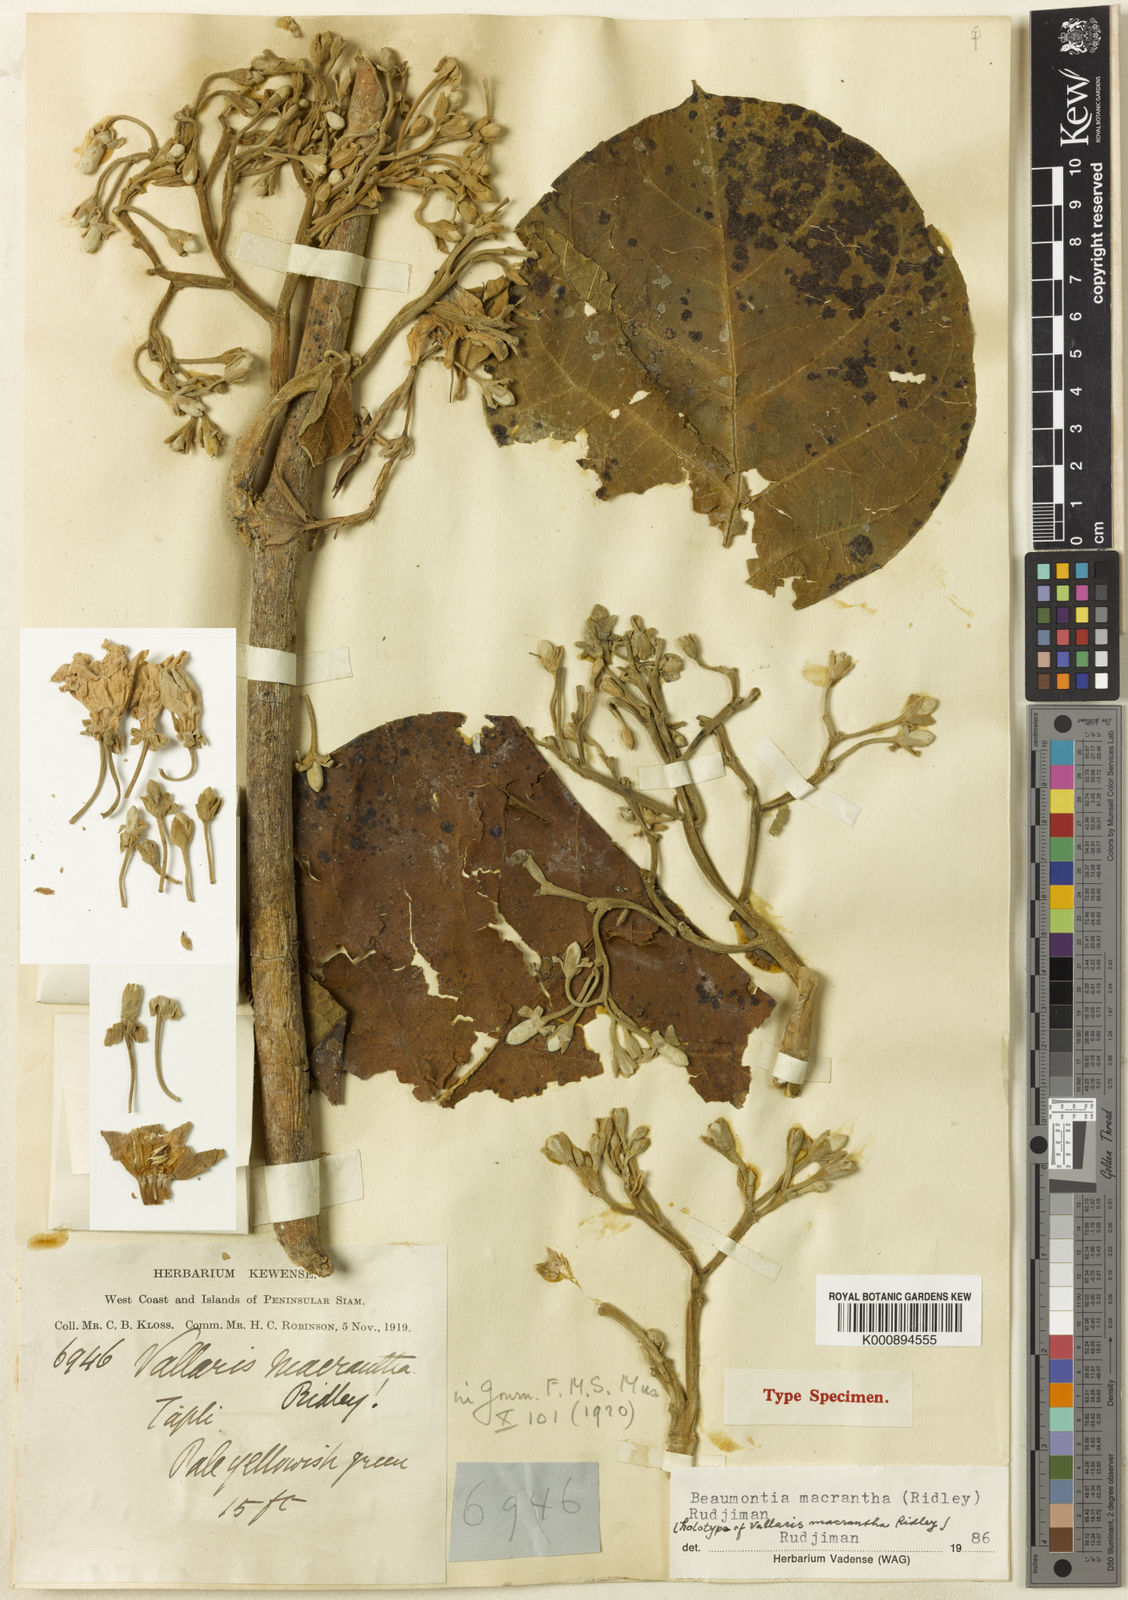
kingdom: Plantae
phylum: Tracheophyta
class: Magnoliopsida
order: Gentianales
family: Apocynaceae
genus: Beaumontia
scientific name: Beaumontia macrantha
